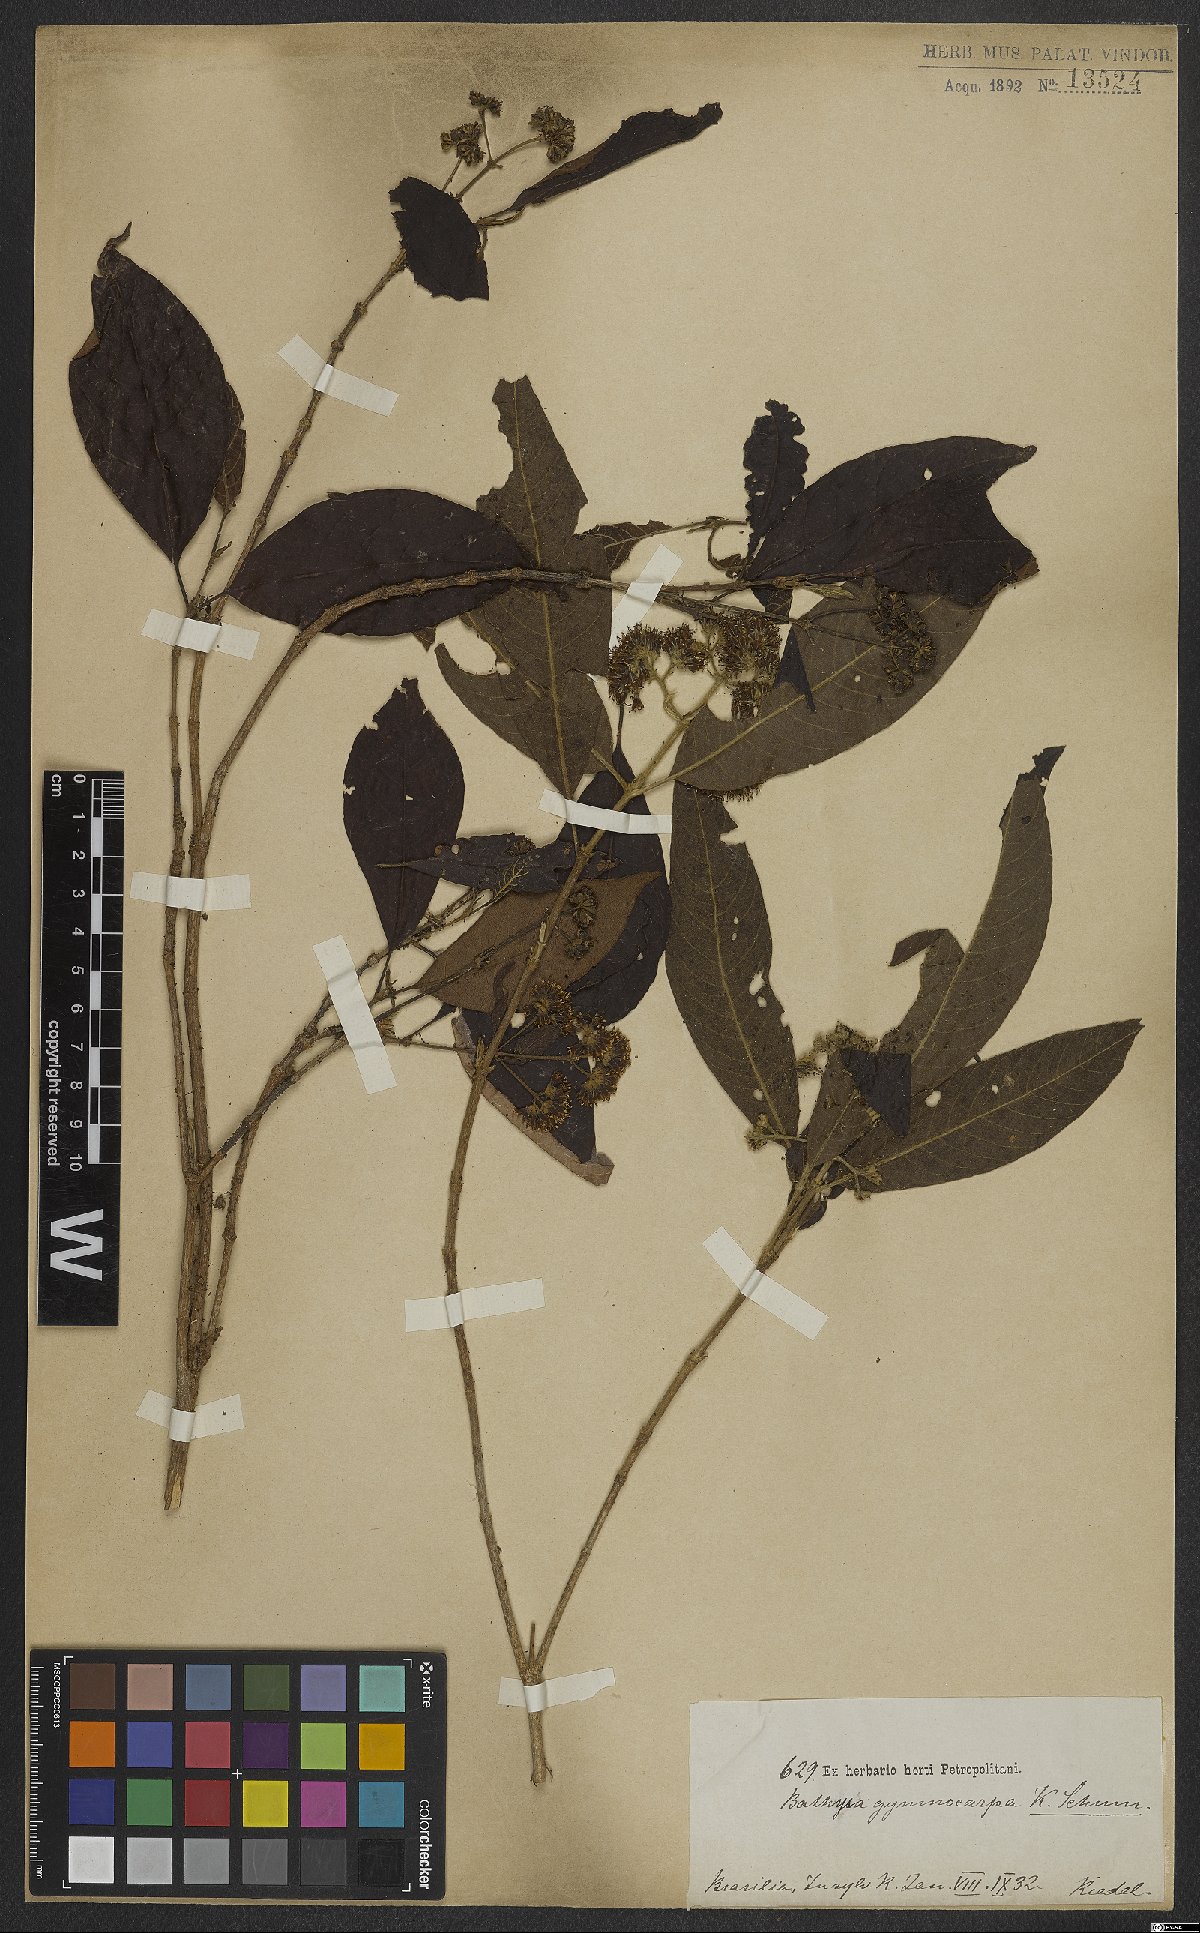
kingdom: Plantae
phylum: Tracheophyta
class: Magnoliopsida
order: Gentianales
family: Rubiaceae
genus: Bathysa
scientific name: Bathysa gymnocarpa
